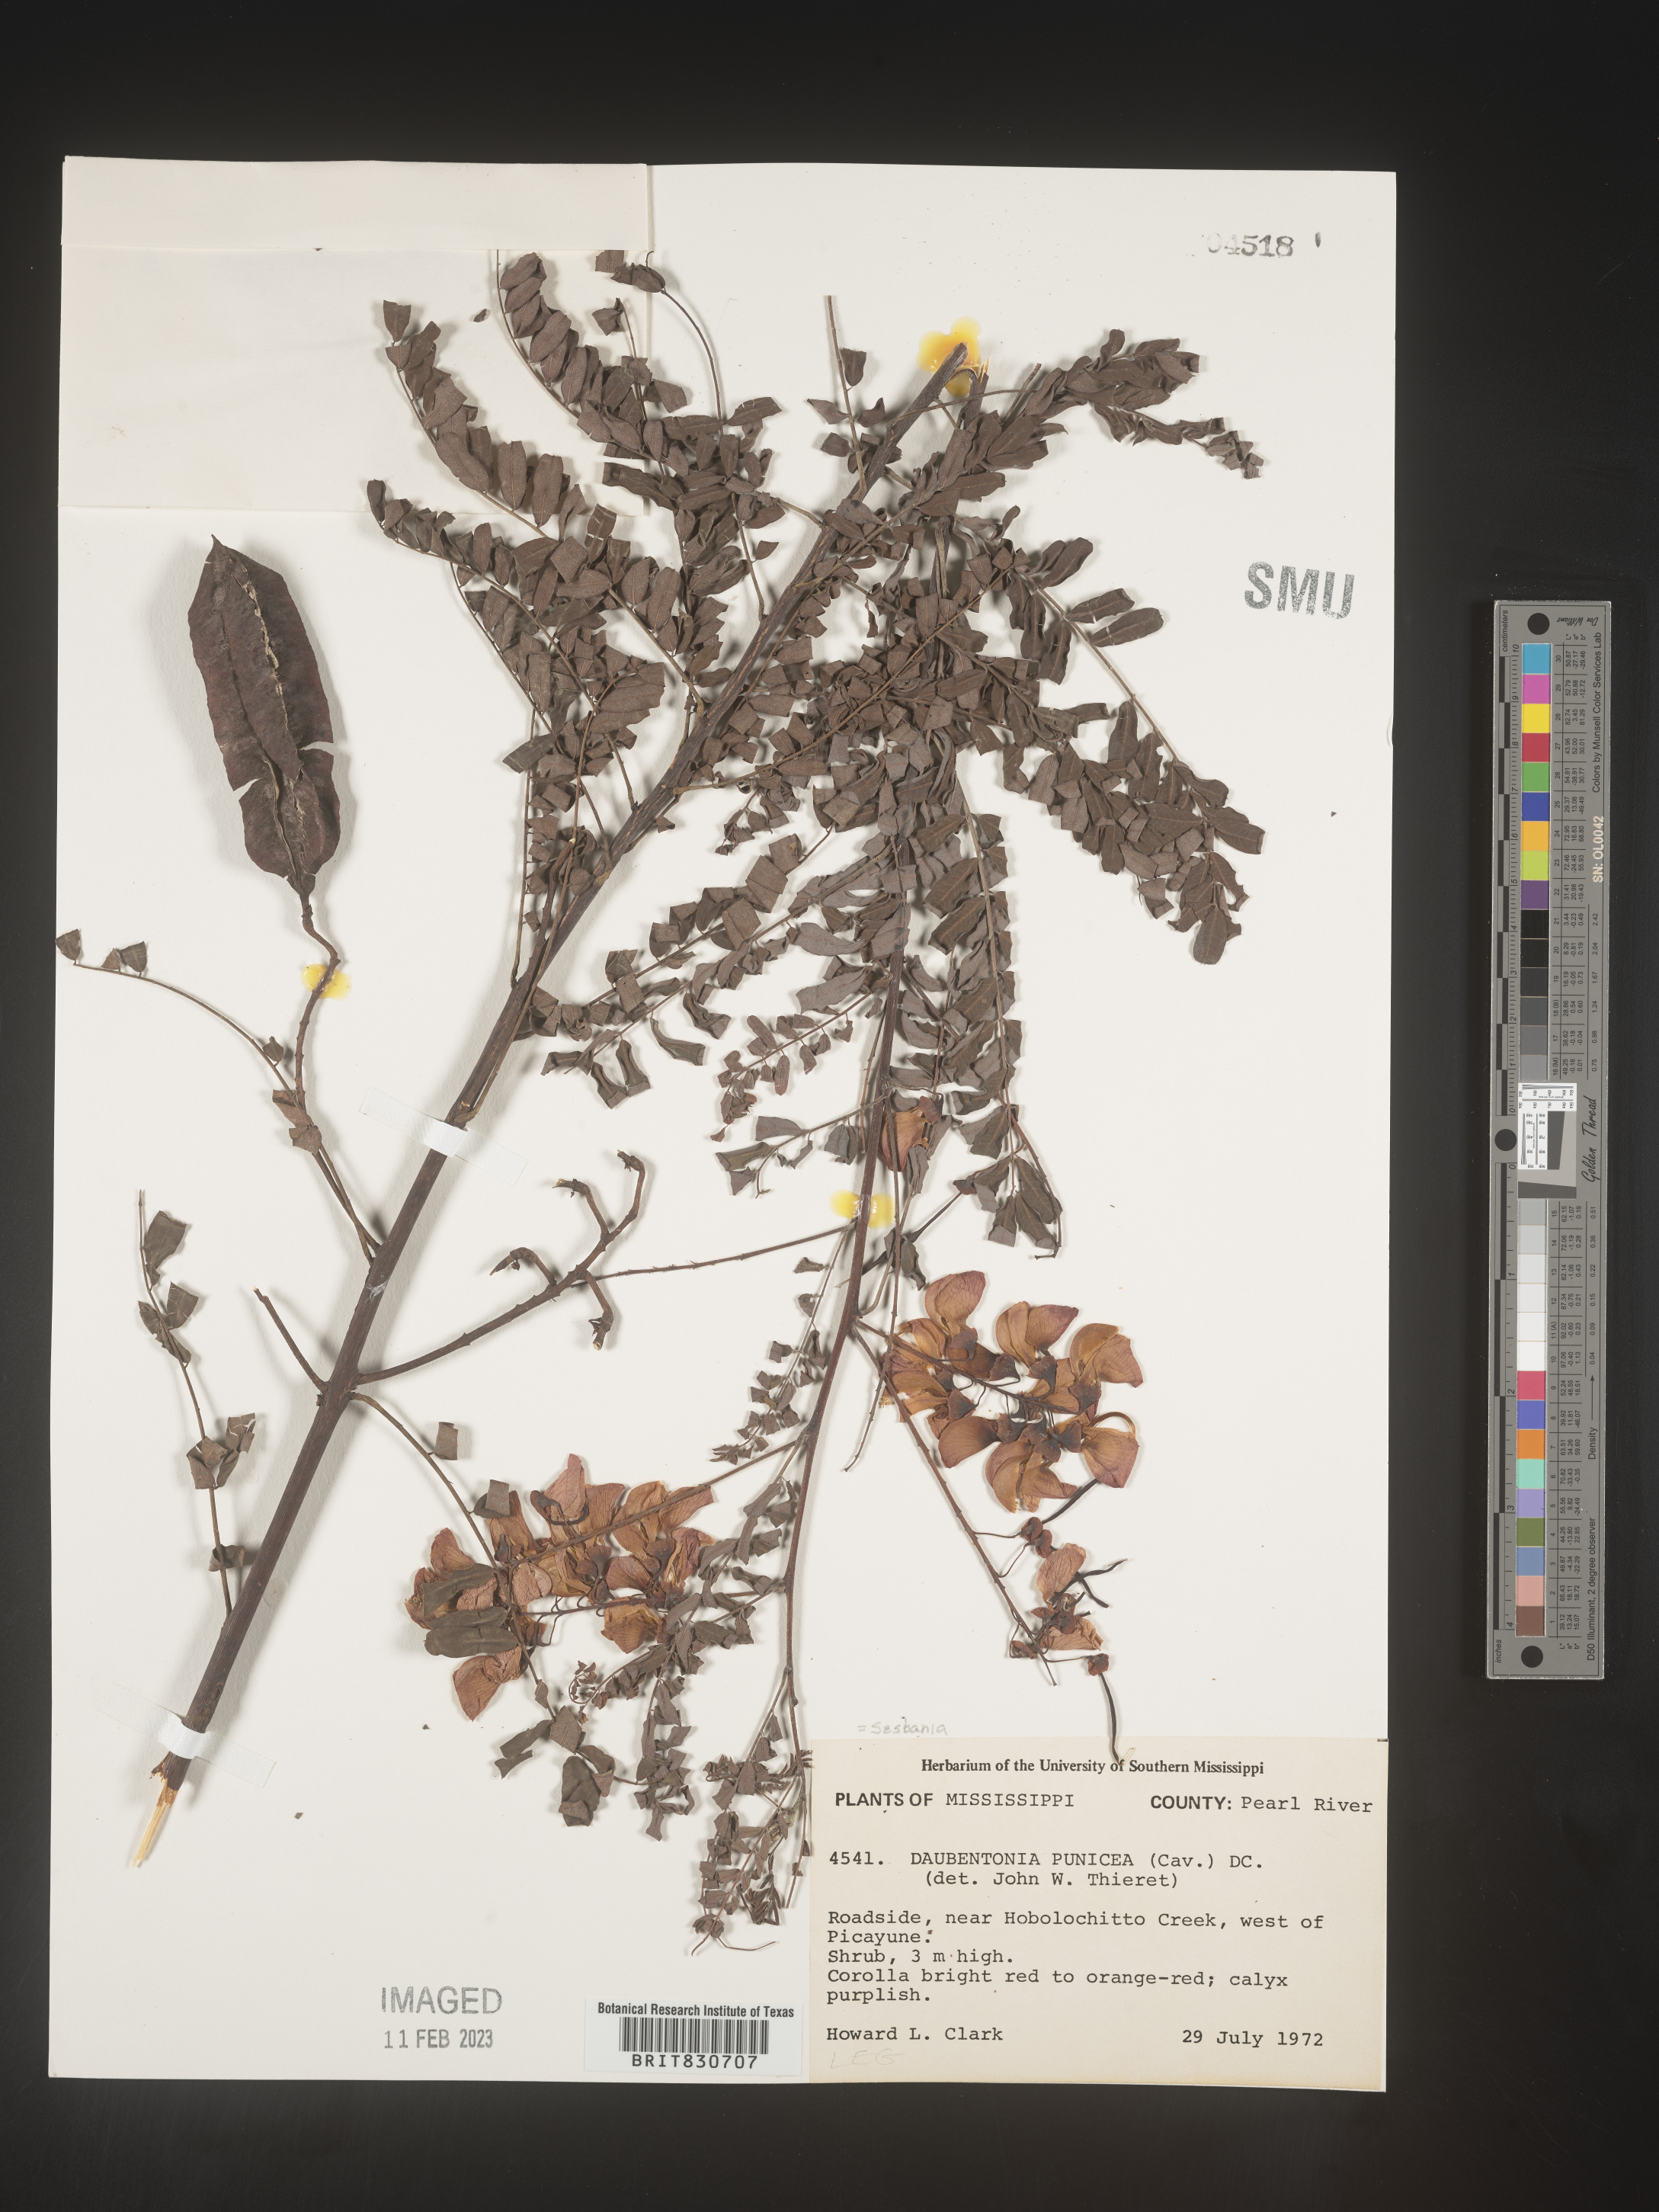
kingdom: Plantae
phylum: Tracheophyta
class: Magnoliopsida
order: Fabales
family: Fabaceae
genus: Sesbania
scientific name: Sesbania punicea
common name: Rattlebox
